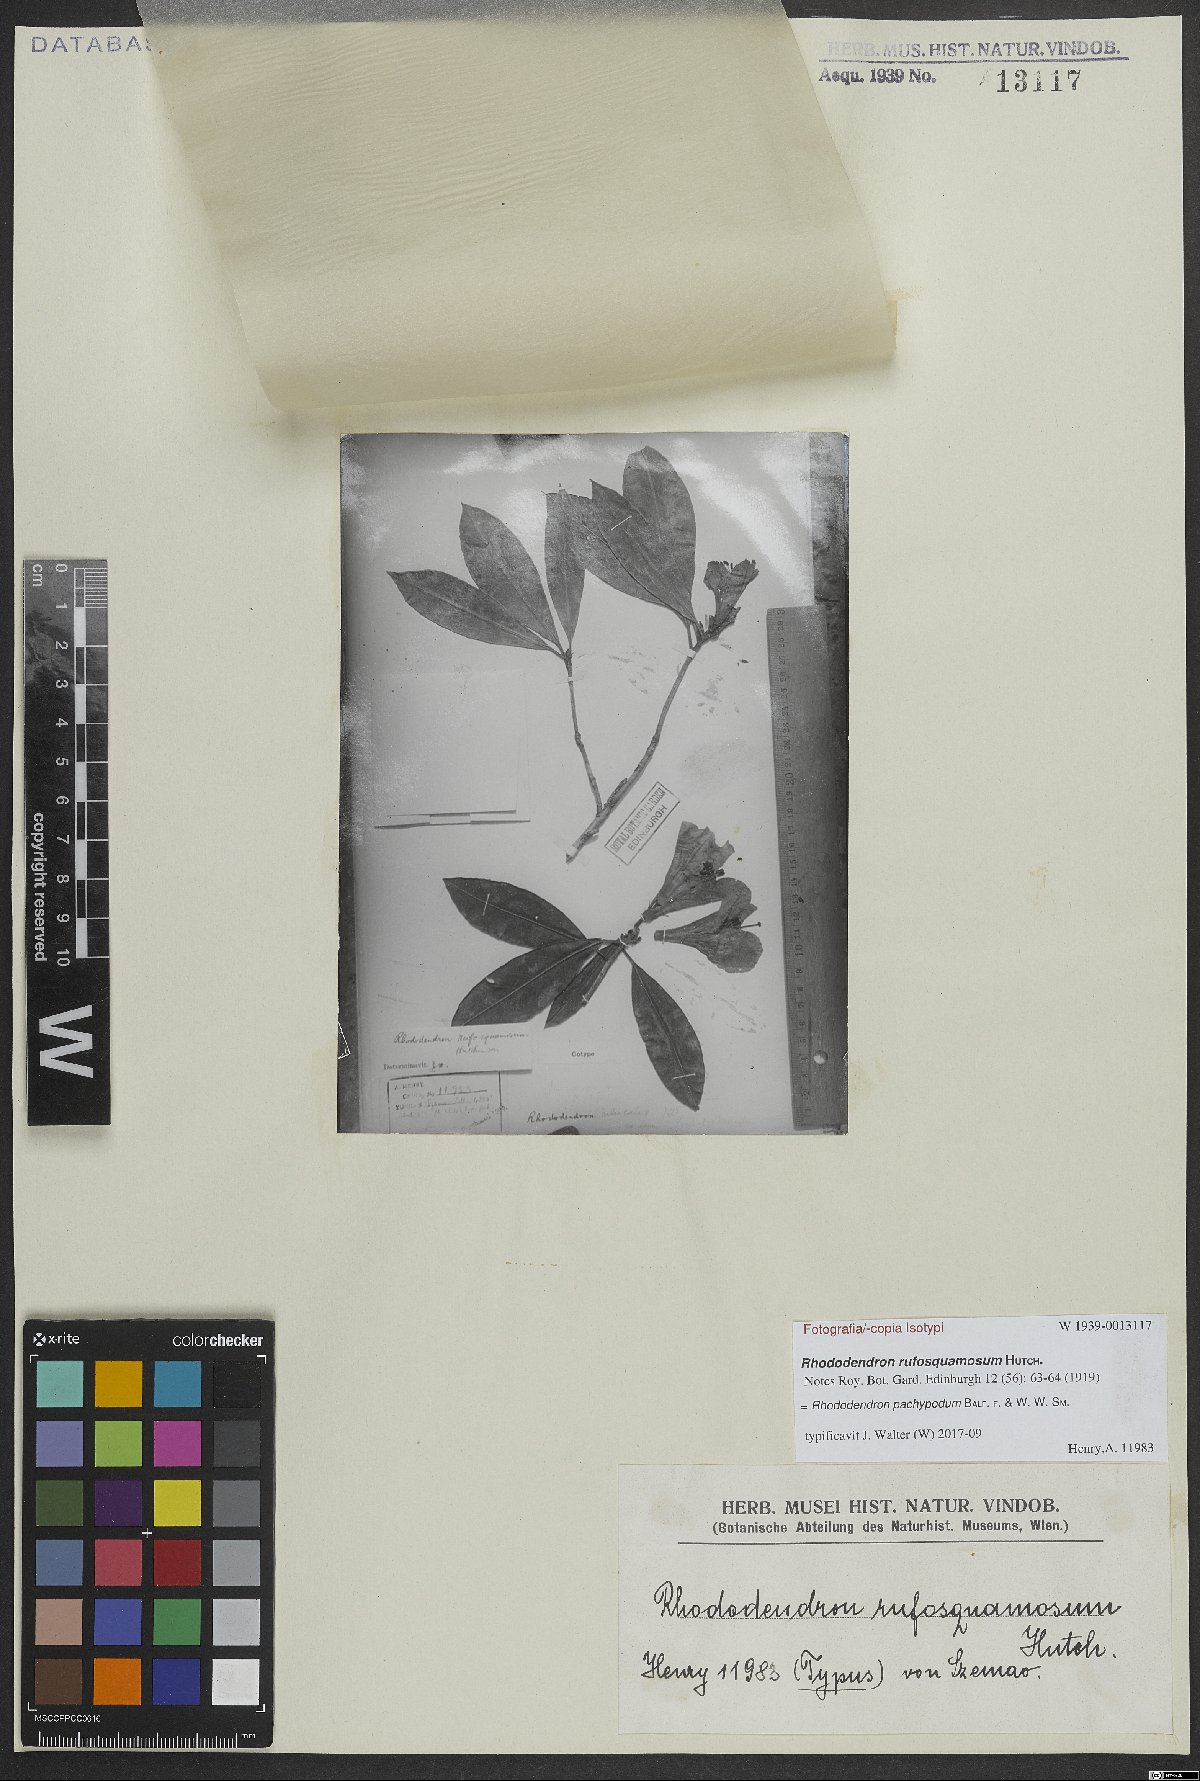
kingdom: Plantae
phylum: Tracheophyta
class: Magnoliopsida
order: Ericales
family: Ericaceae
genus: Rhododendron
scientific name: Rhododendron pachypodum
